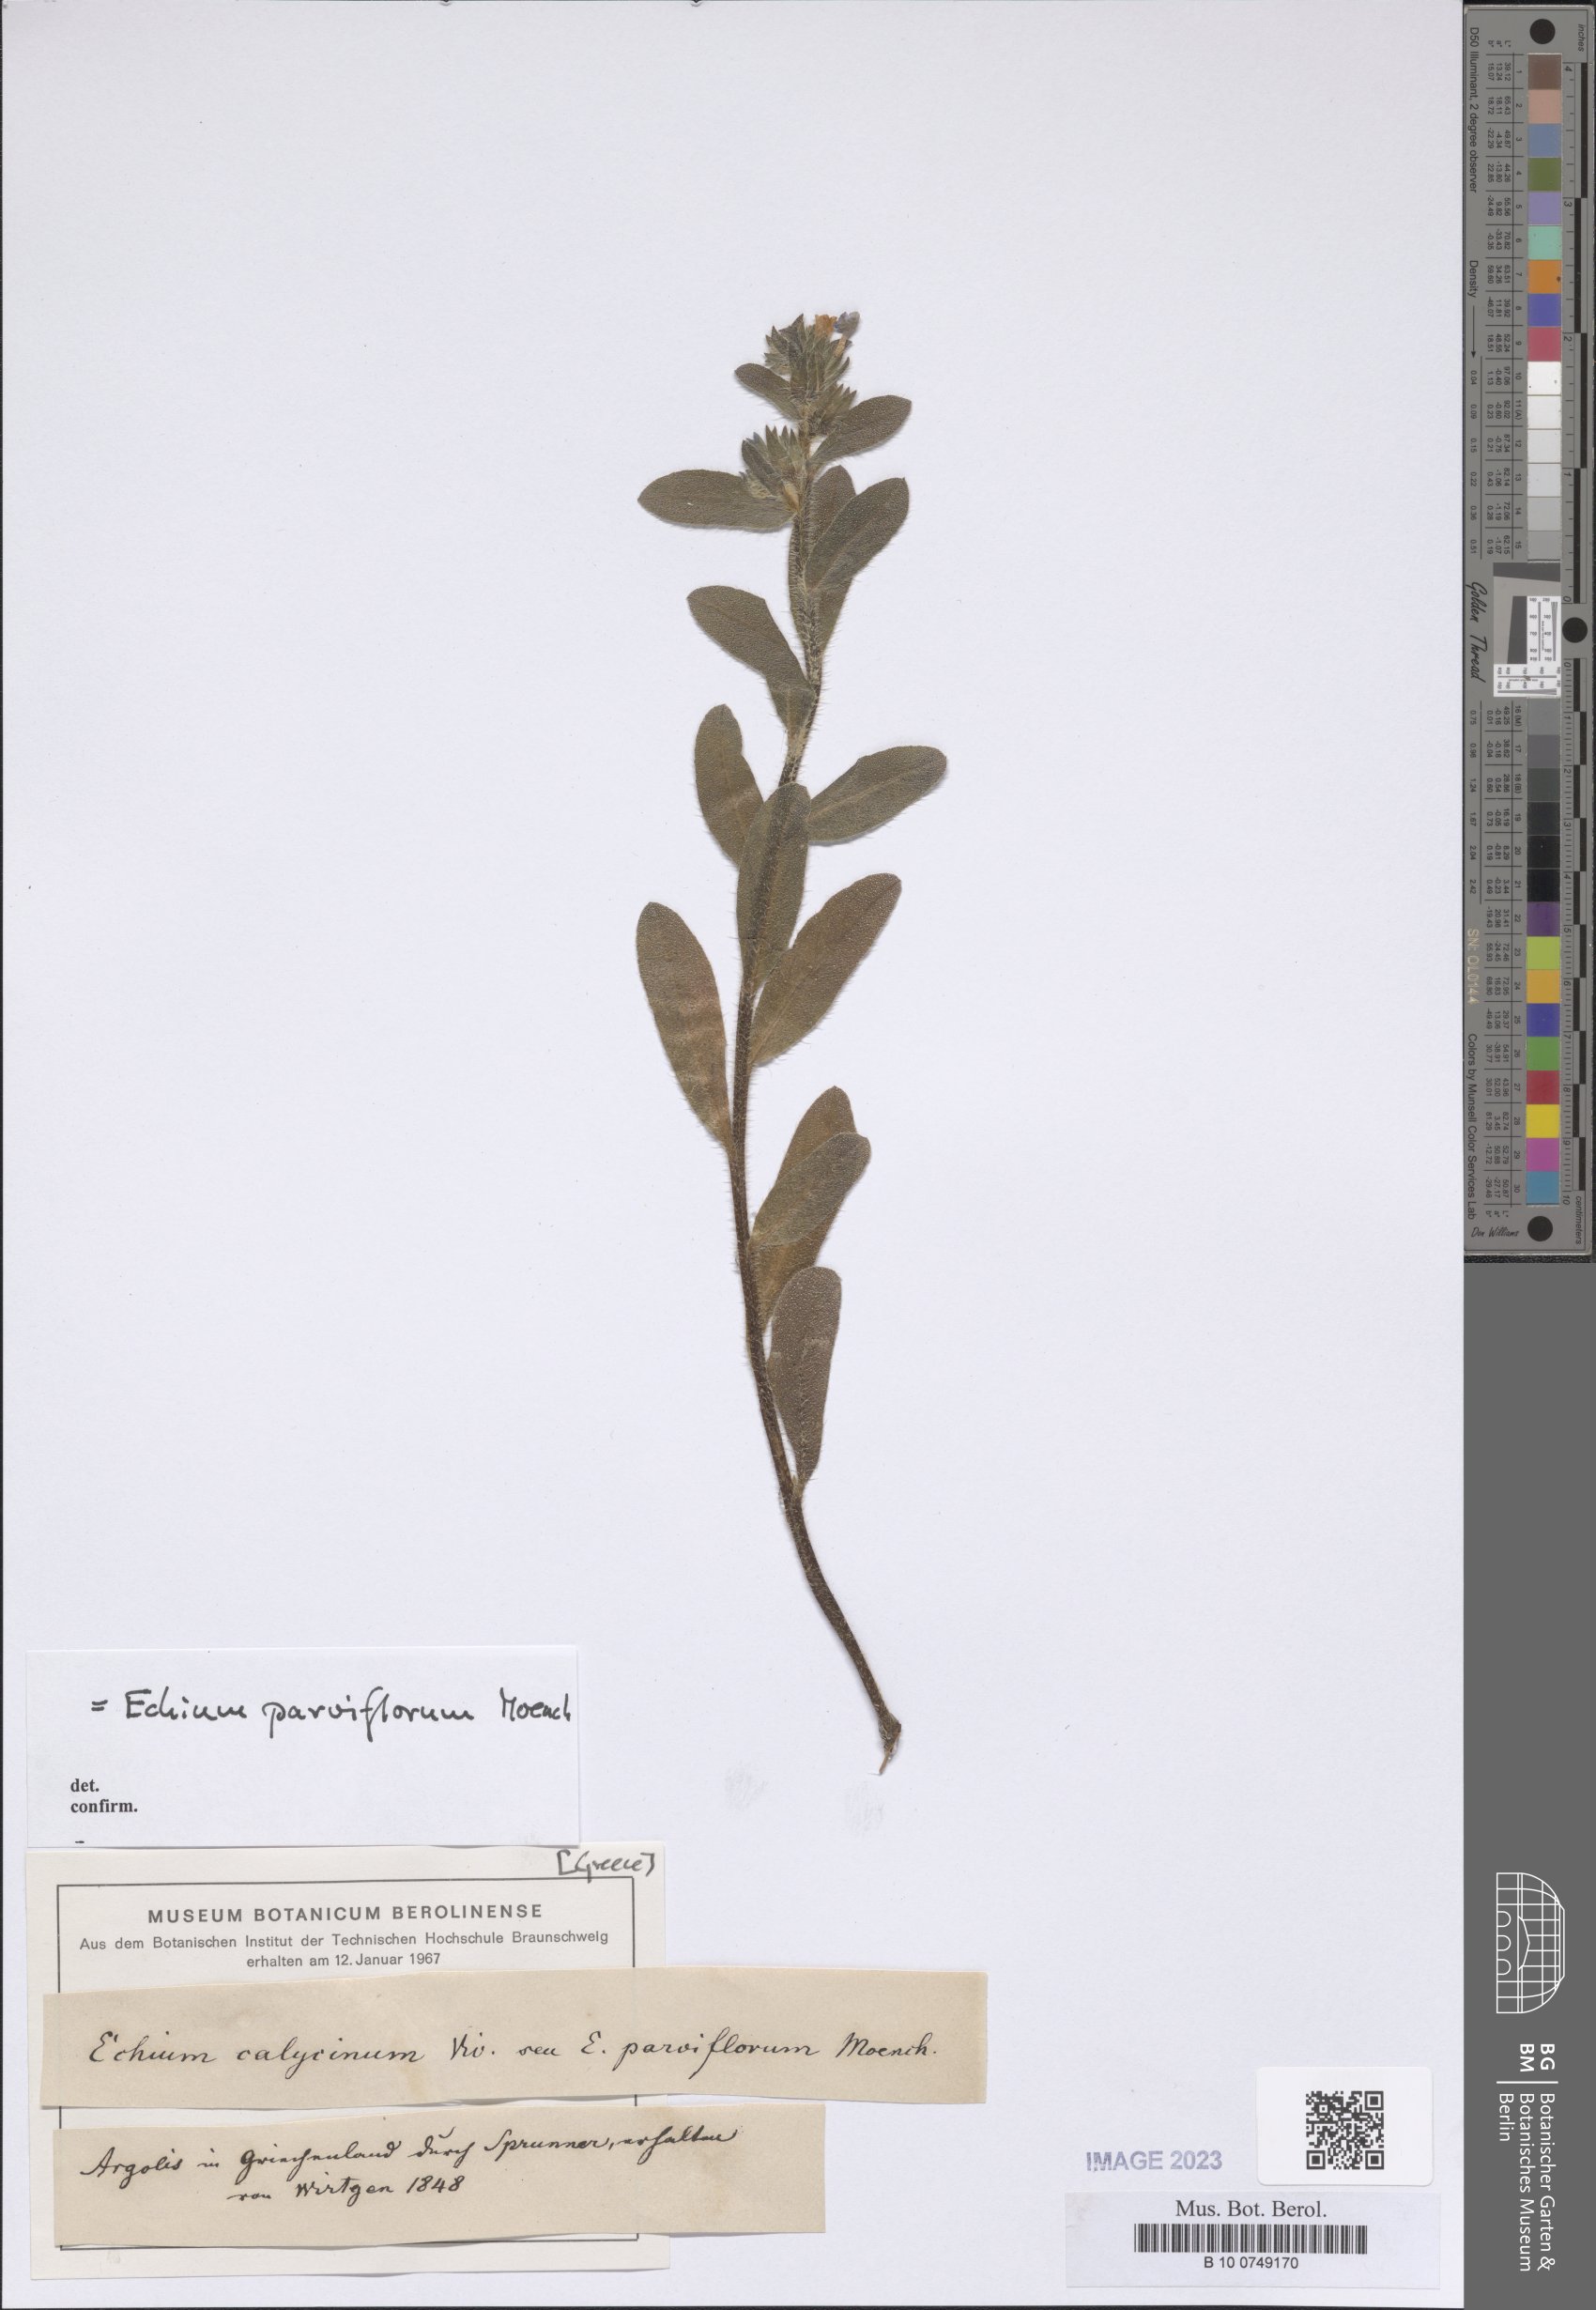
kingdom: Plantae
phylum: Tracheophyta
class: Magnoliopsida
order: Boraginales
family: Boraginaceae
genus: Echium
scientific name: Echium parviflorum
